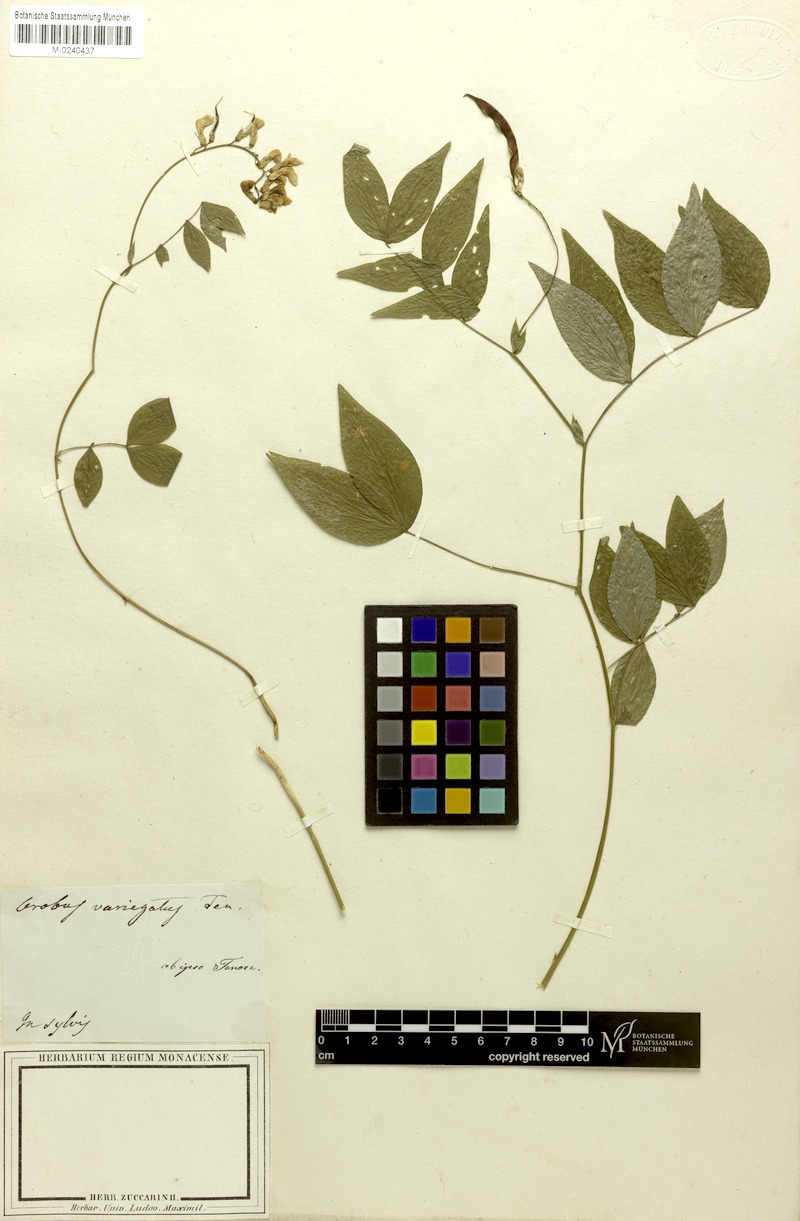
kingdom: Plantae
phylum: Tracheophyta
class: Magnoliopsida
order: Fabales
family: Fabaceae
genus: Lathyrus
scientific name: Lathyrus venetus
